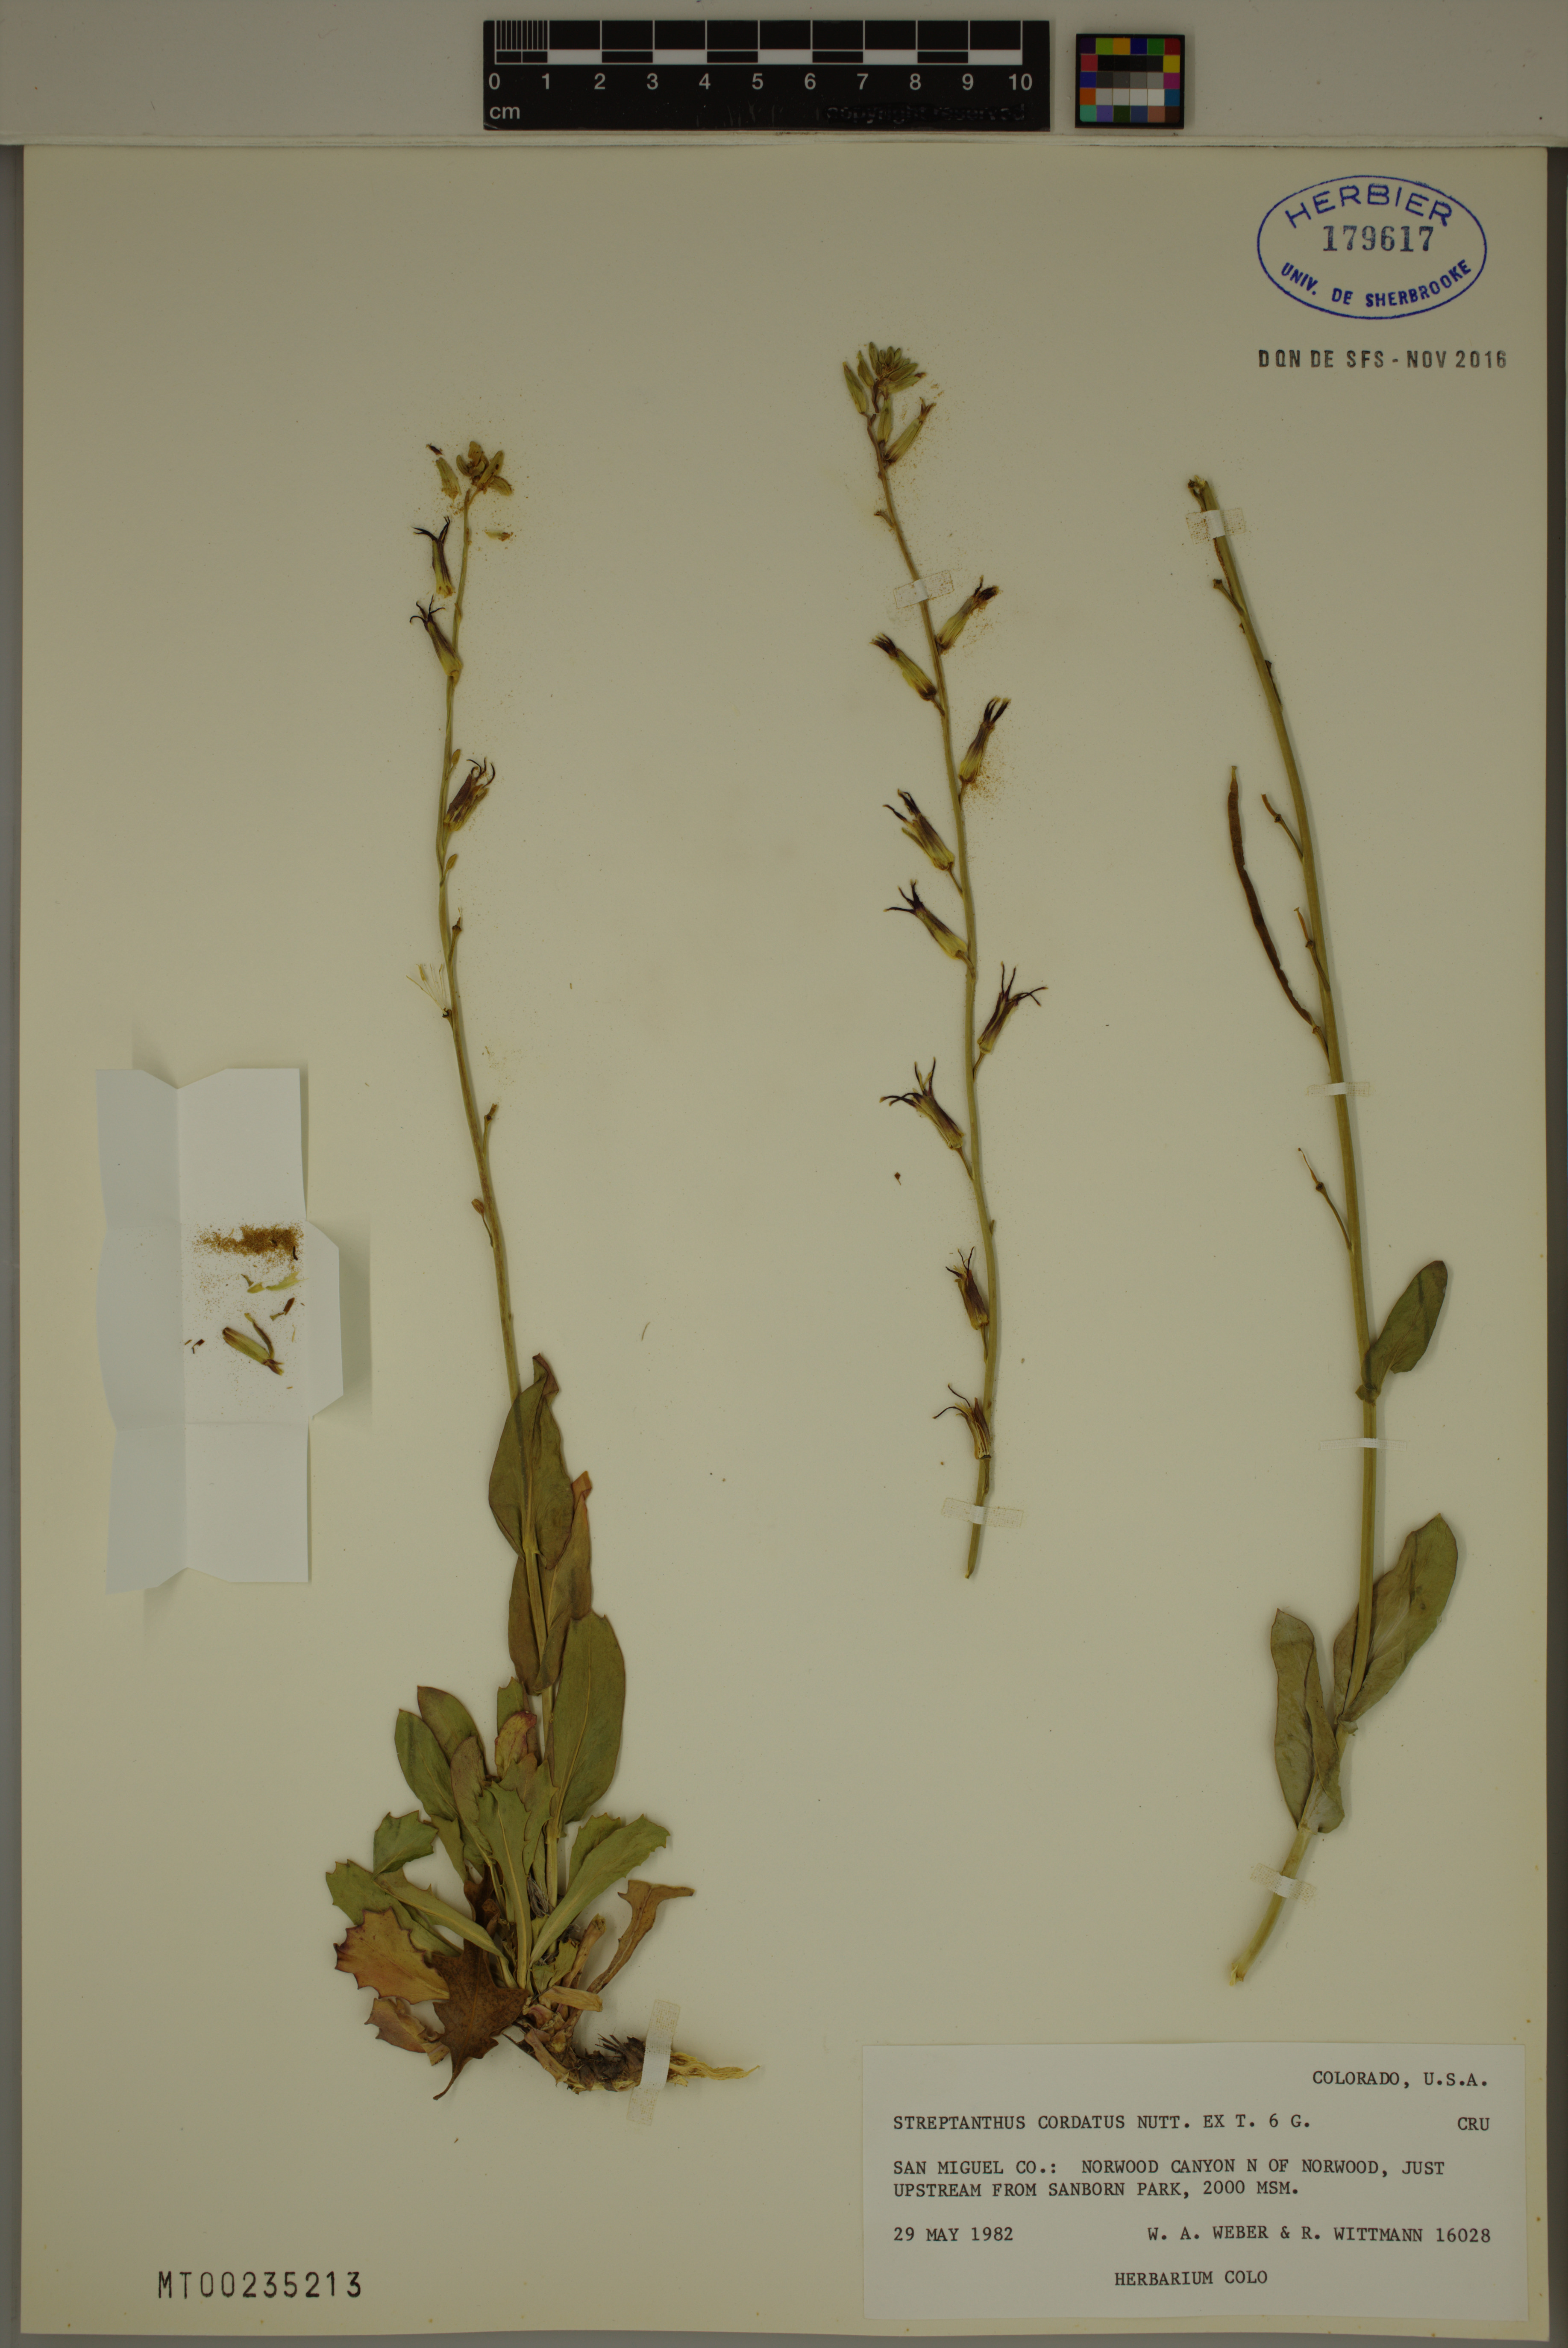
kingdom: Plantae
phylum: Tracheophyta
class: Magnoliopsida
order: Brassicales
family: Brassicaceae
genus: Streptanthus
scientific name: Streptanthus cordatus
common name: Heart-leaf jewel-flower
